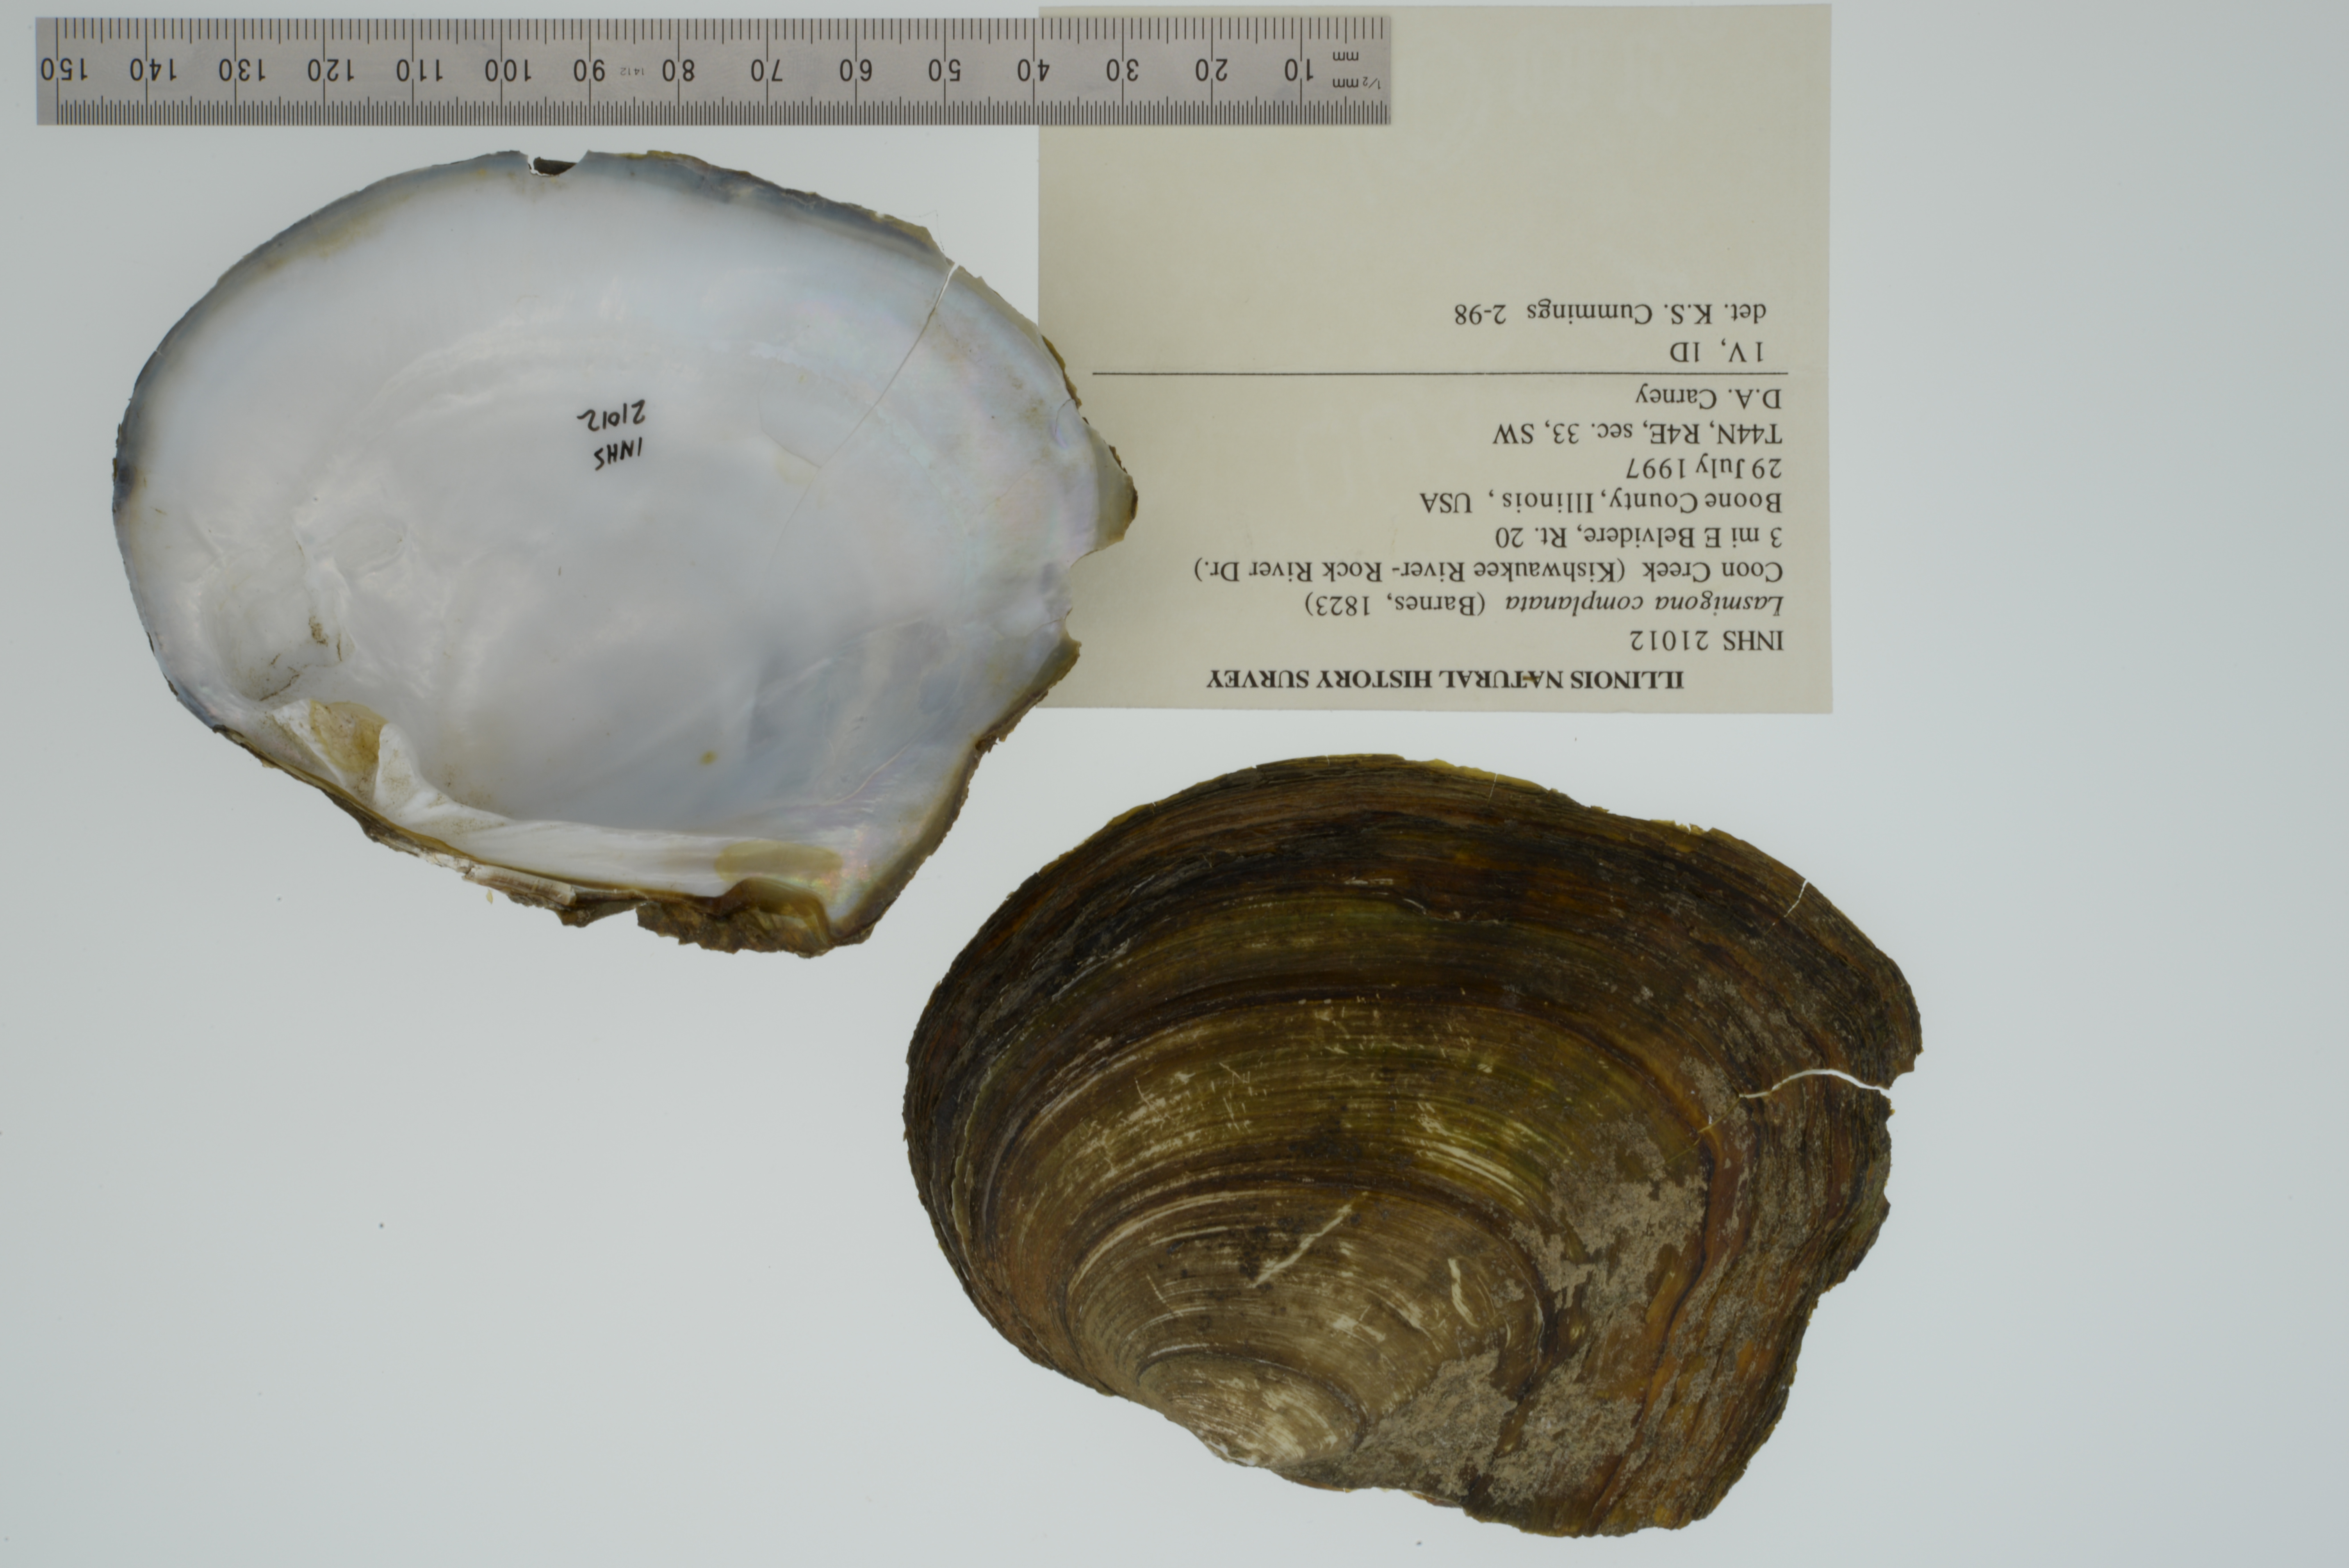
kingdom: Animalia
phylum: Mollusca
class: Bivalvia
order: Unionida
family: Unionidae
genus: Lasmigona
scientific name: Lasmigona complanata
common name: White heelsplitter
